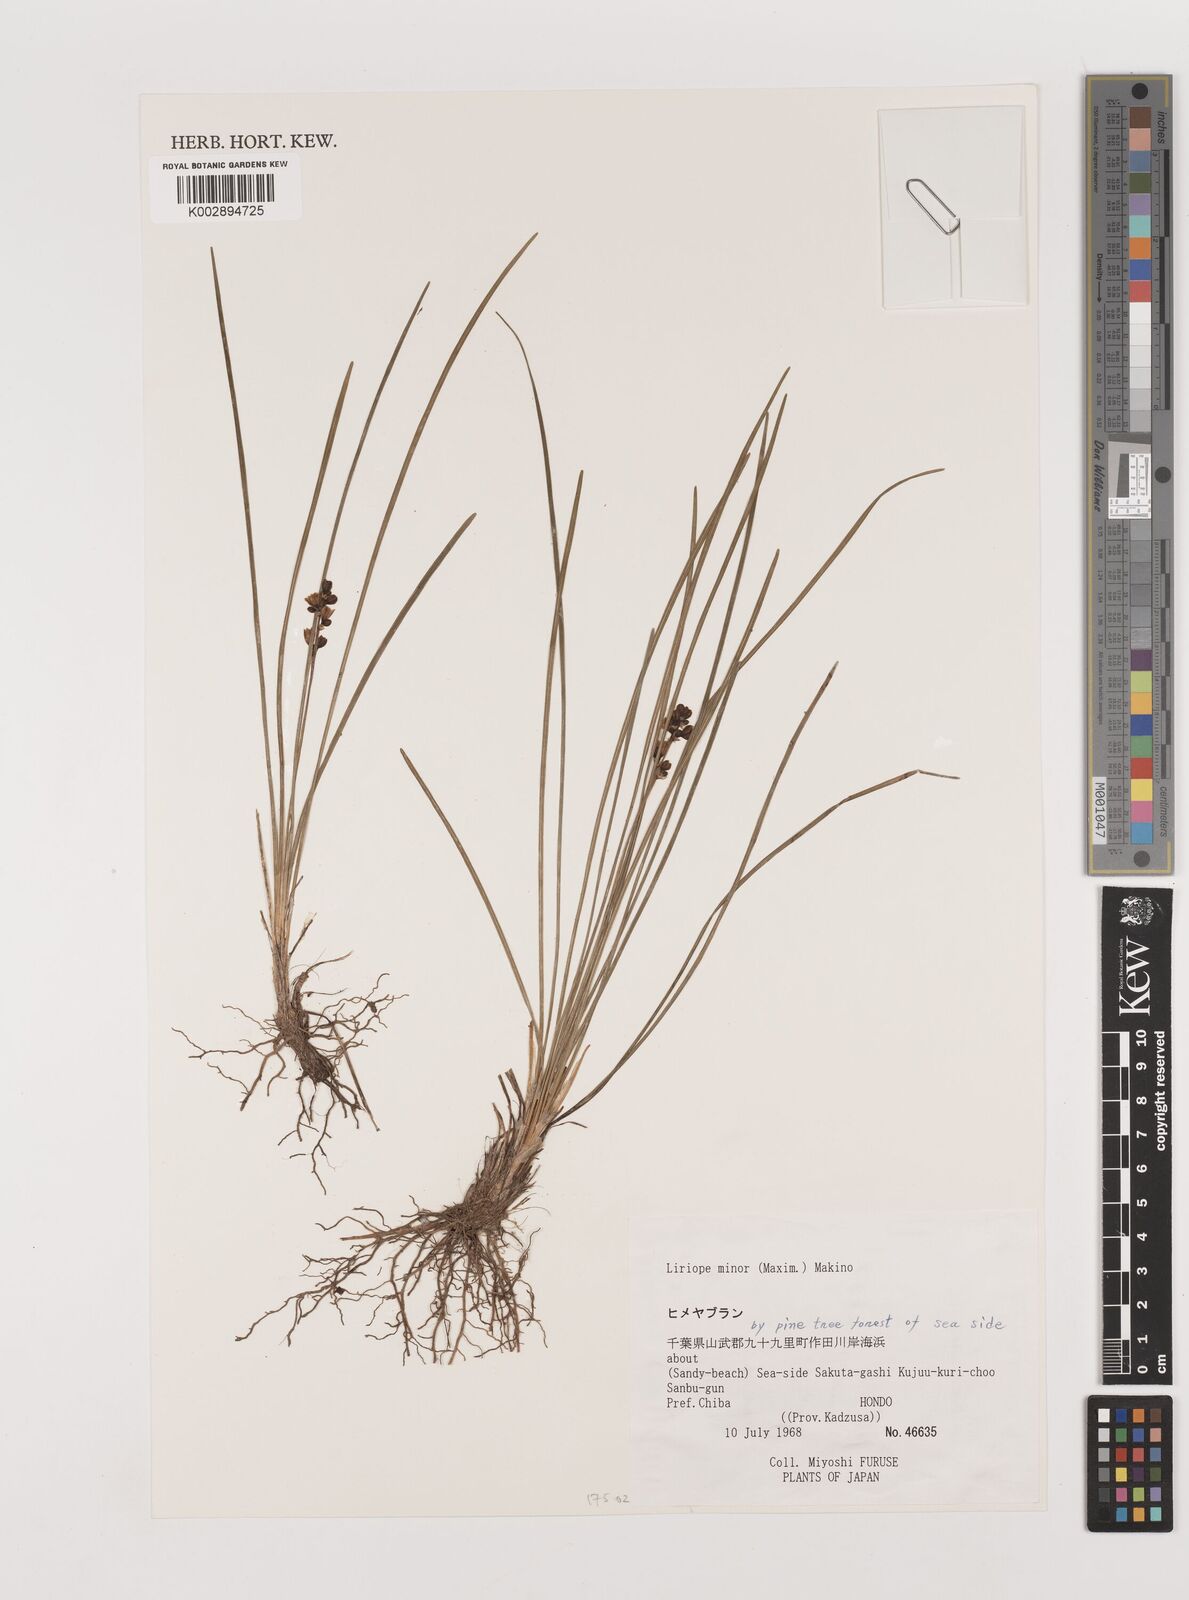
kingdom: Plantae
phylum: Tracheophyta
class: Liliopsida
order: Asparagales
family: Asparagaceae
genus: Liriope
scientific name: Liriope minor
